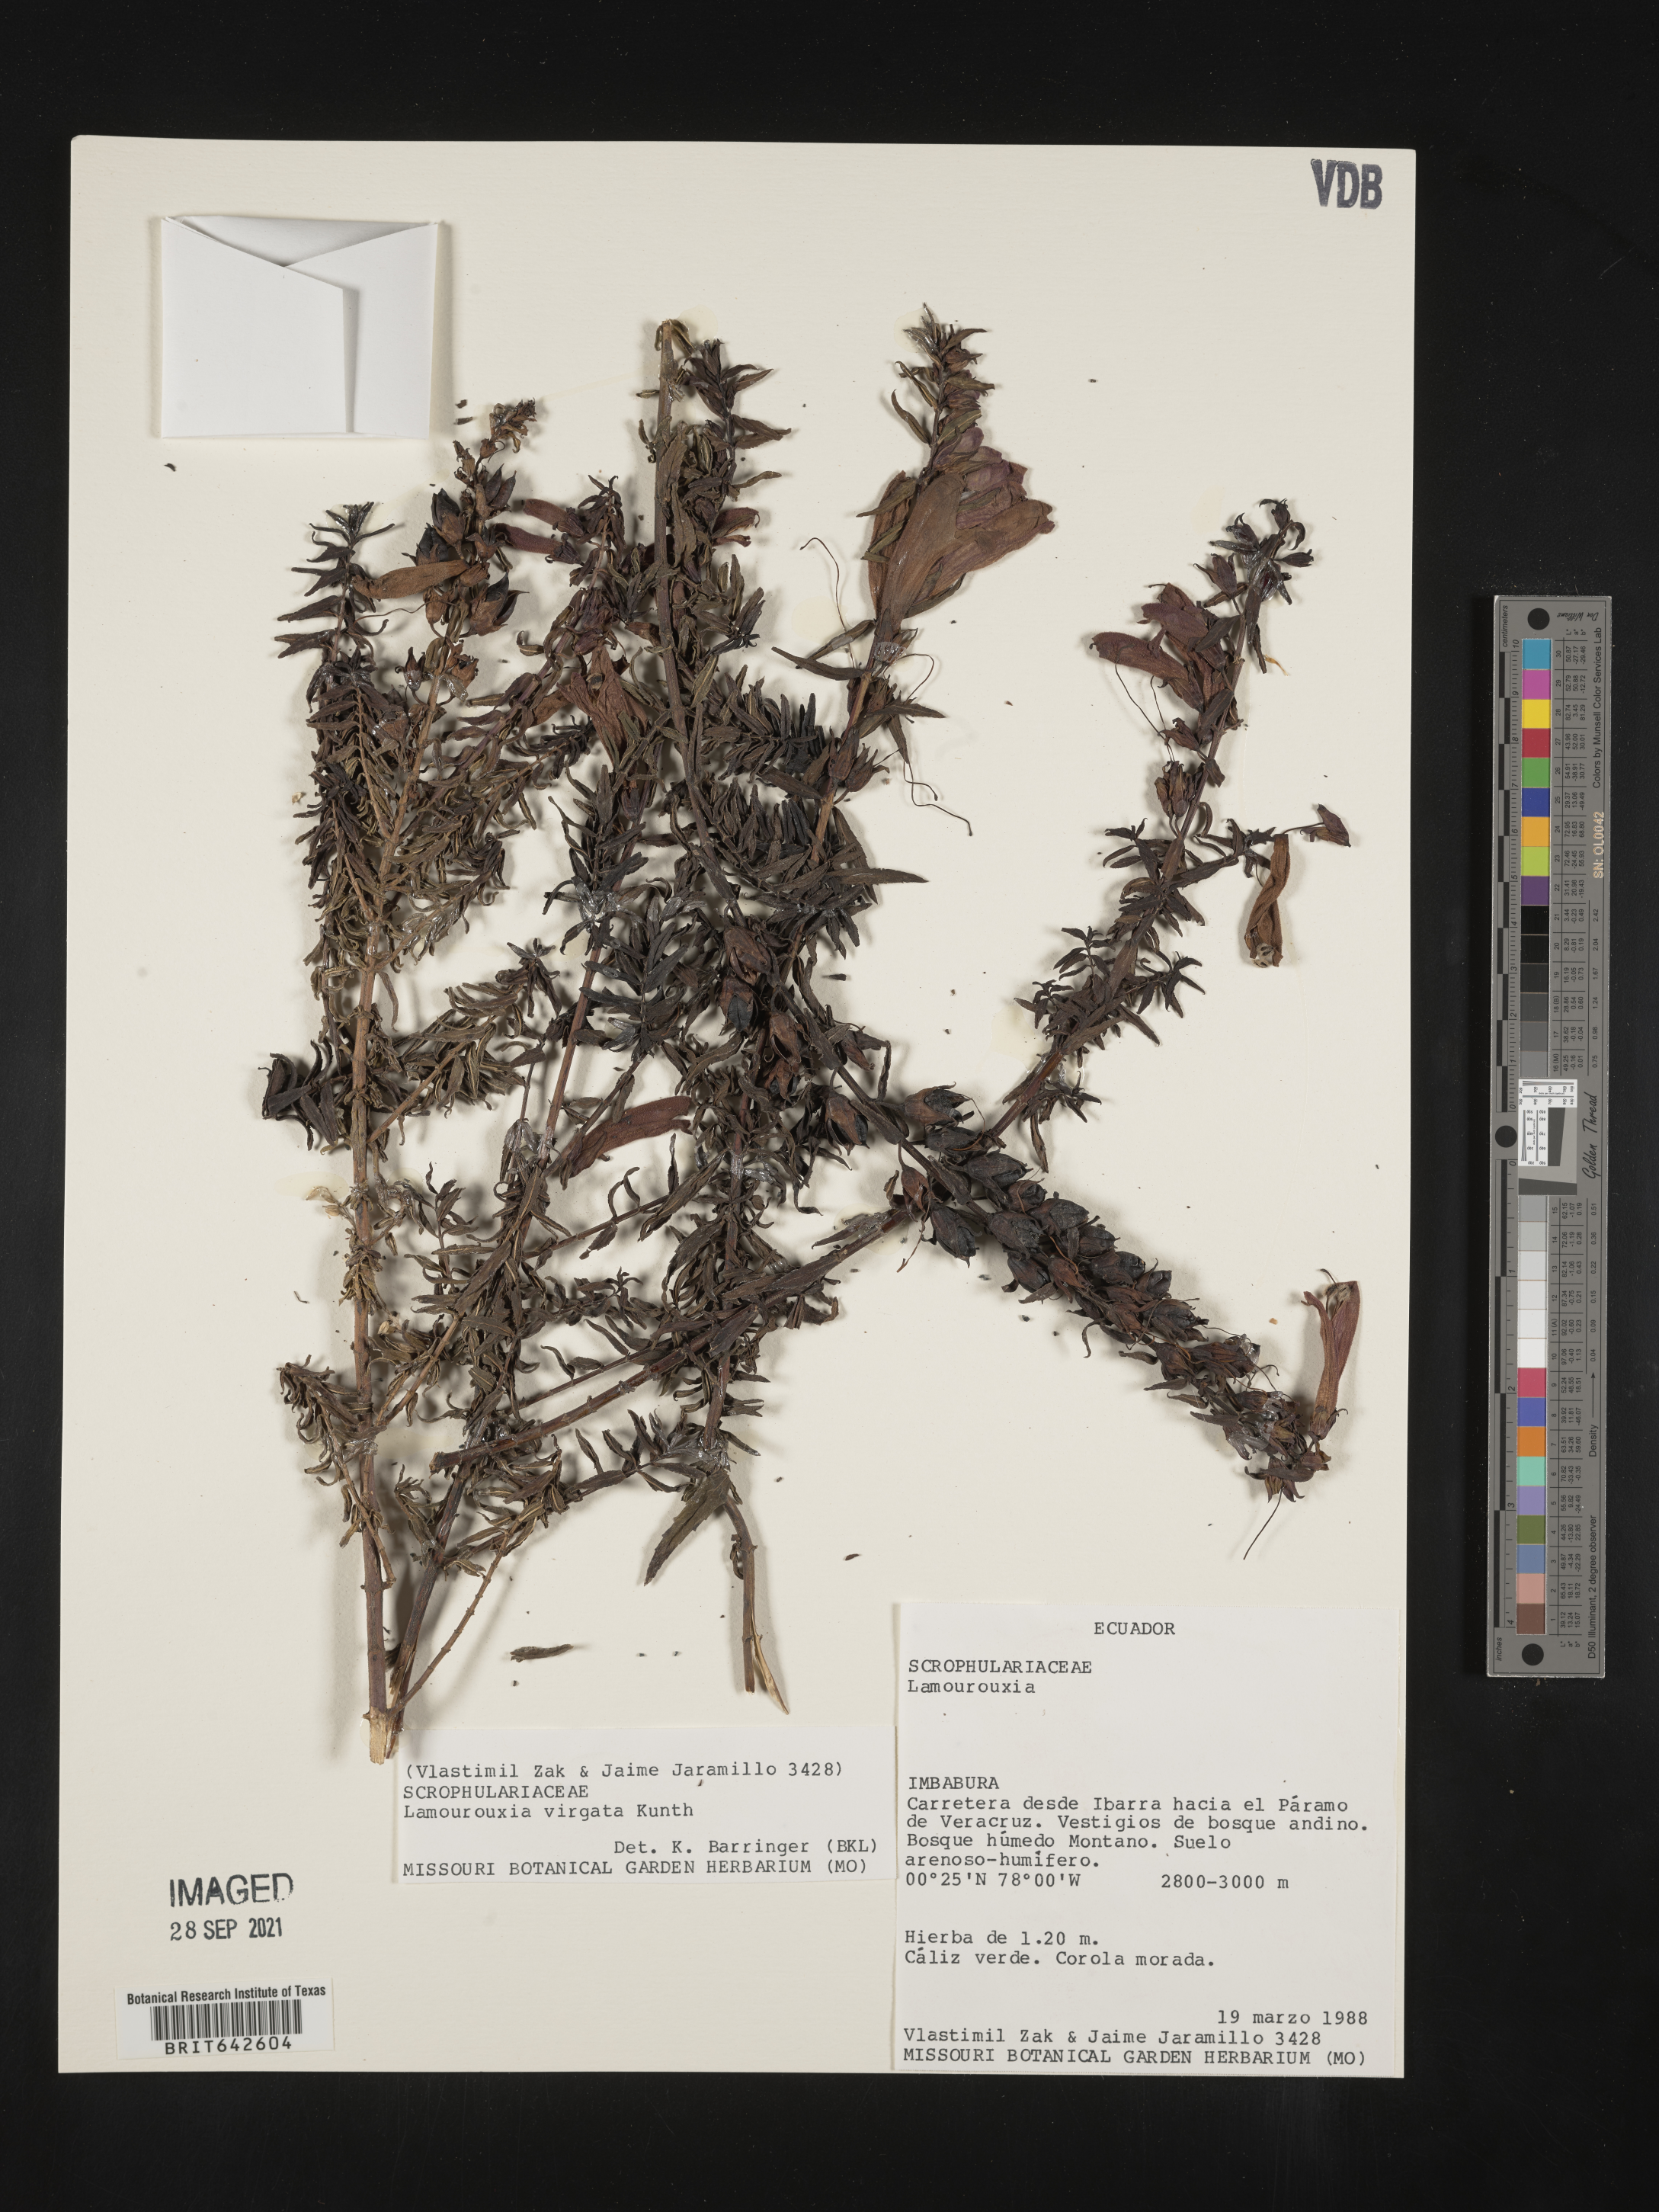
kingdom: Plantae
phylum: Tracheophyta
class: Magnoliopsida
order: Lamiales
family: Orobanchaceae
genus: Lamourouxia
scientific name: Lamourouxia
